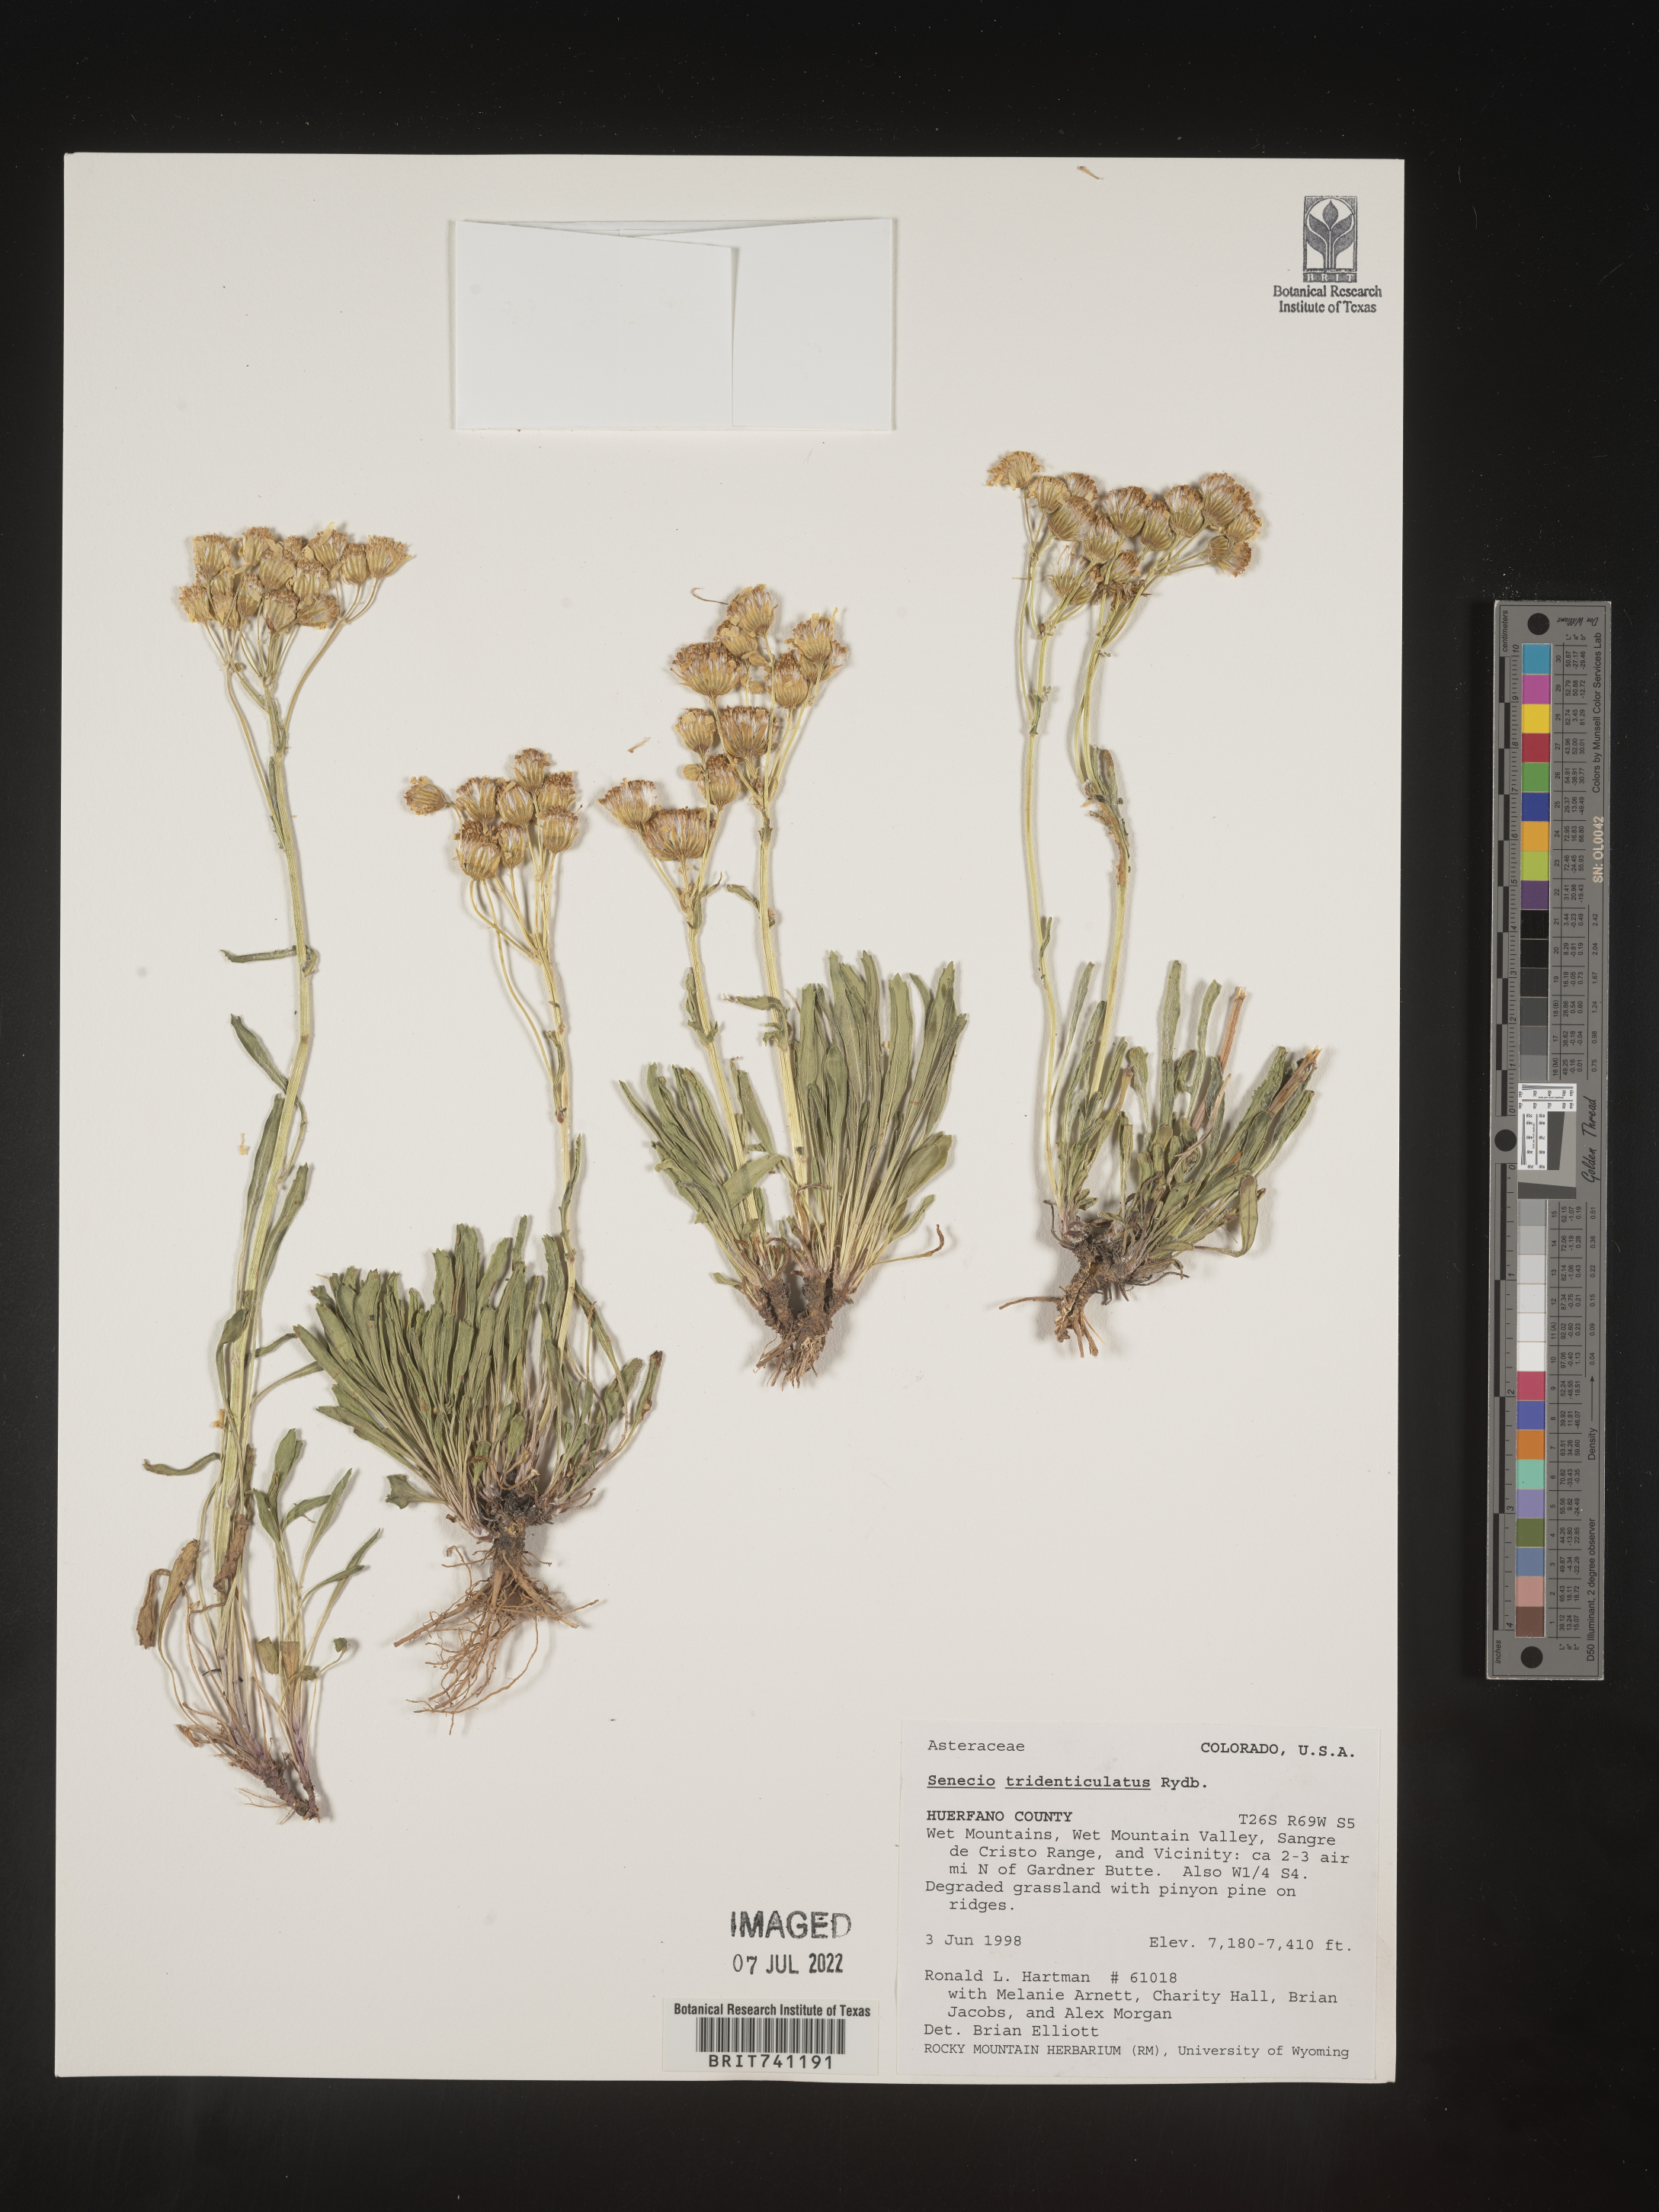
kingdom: Plantae
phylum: Tracheophyta
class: Magnoliopsida
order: Asterales
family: Asteraceae
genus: Packera
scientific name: Packera thurberi
